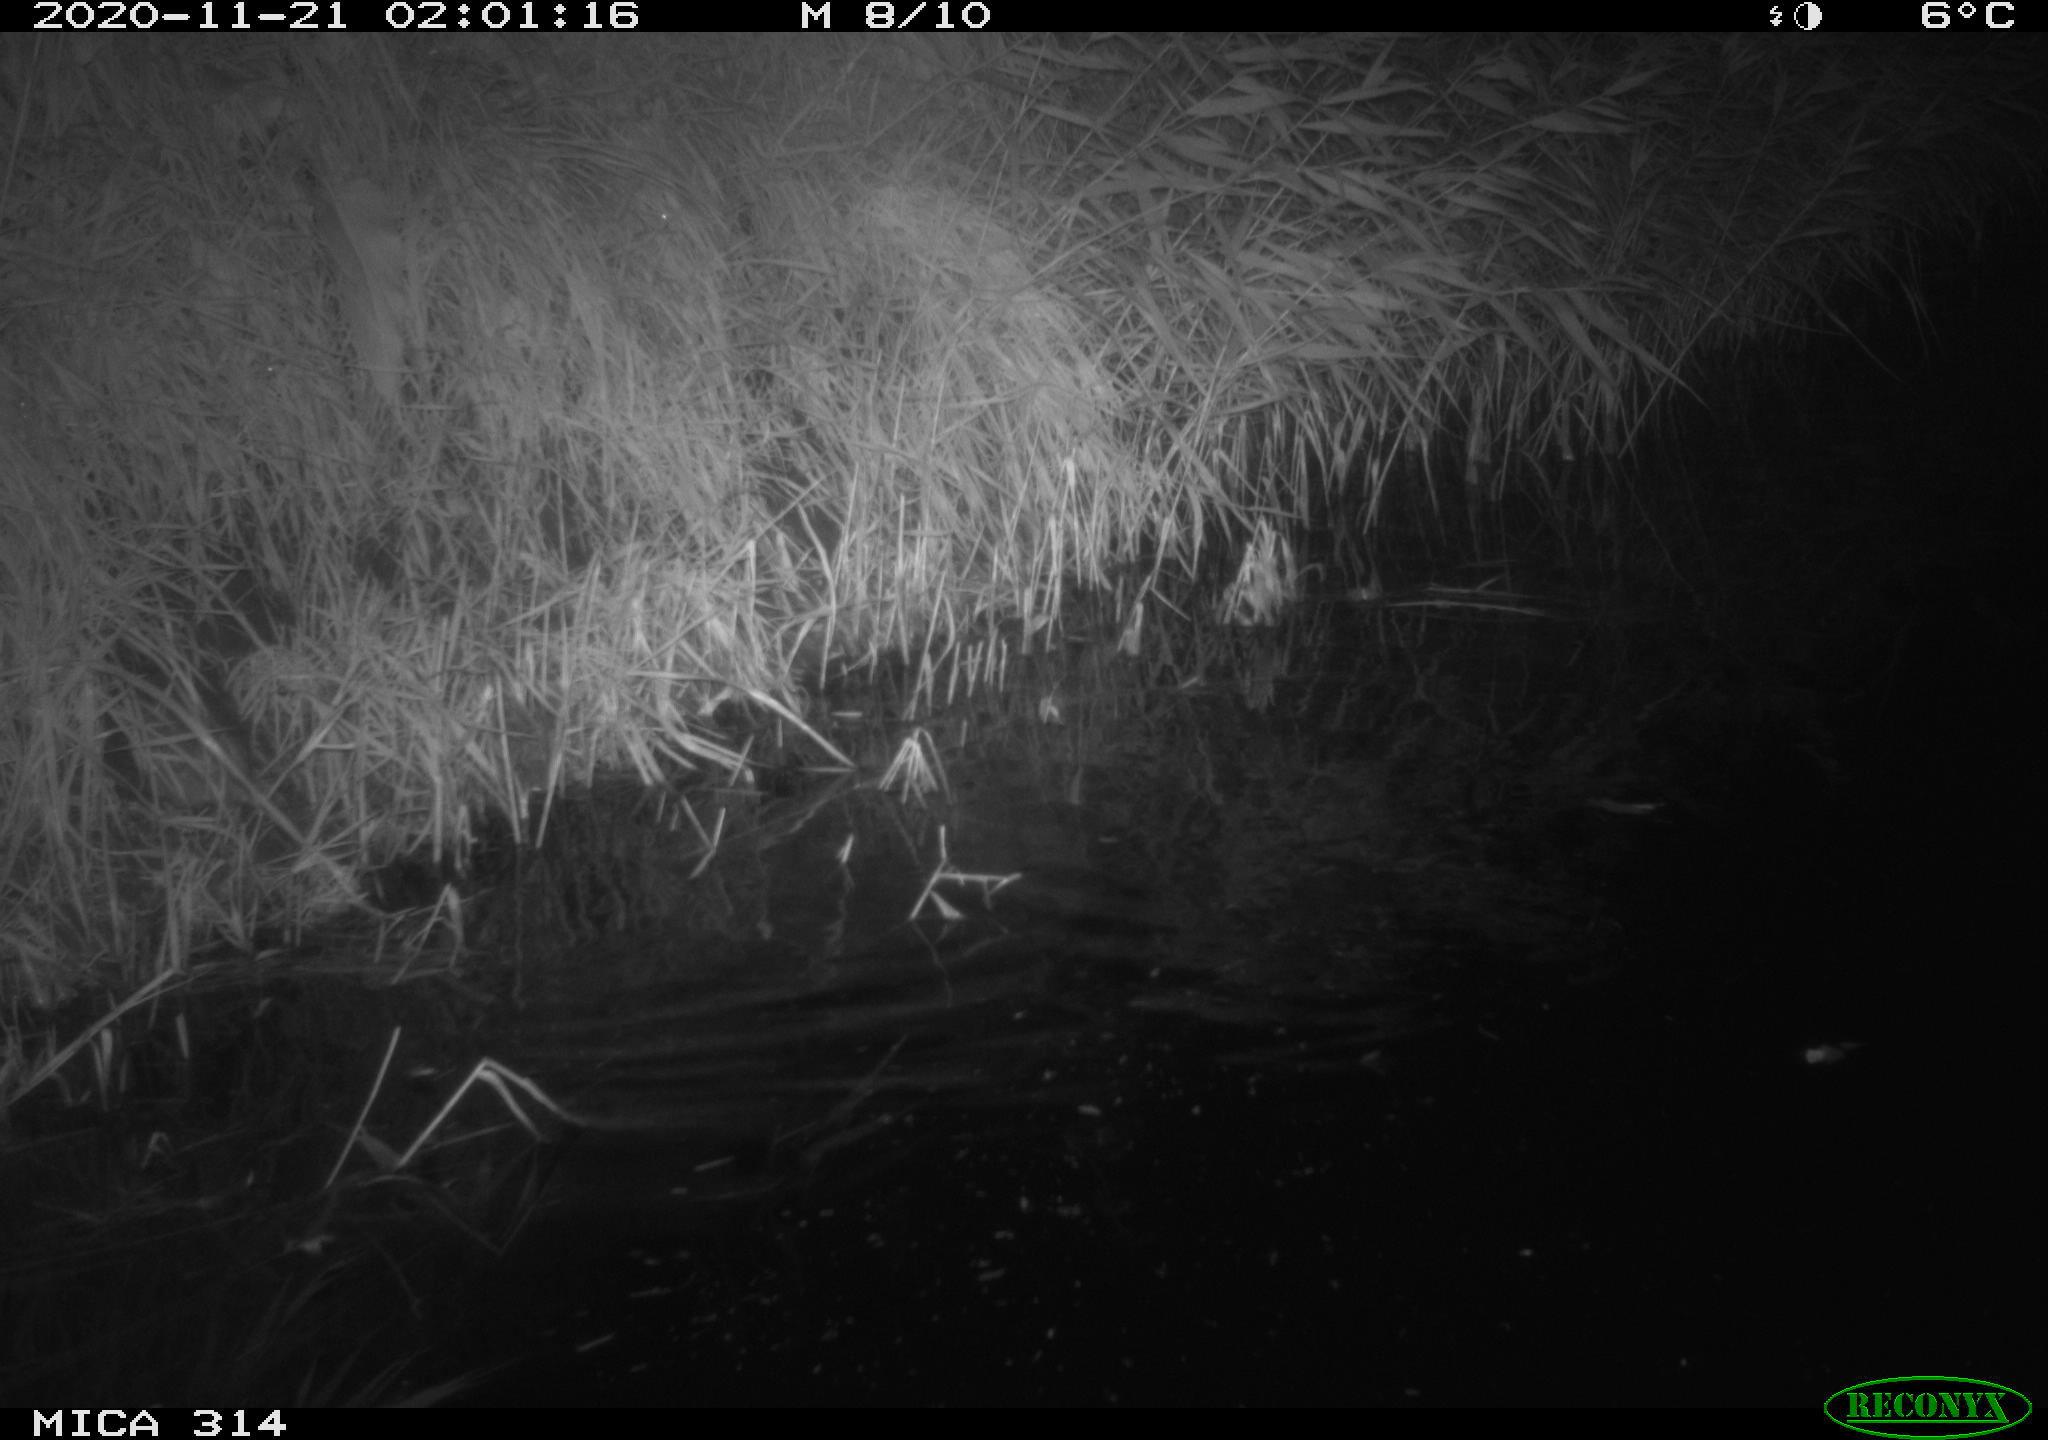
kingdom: Animalia
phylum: Chordata
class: Mammalia
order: Rodentia
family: Muridae
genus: Rattus
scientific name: Rattus norvegicus
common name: Brown rat
